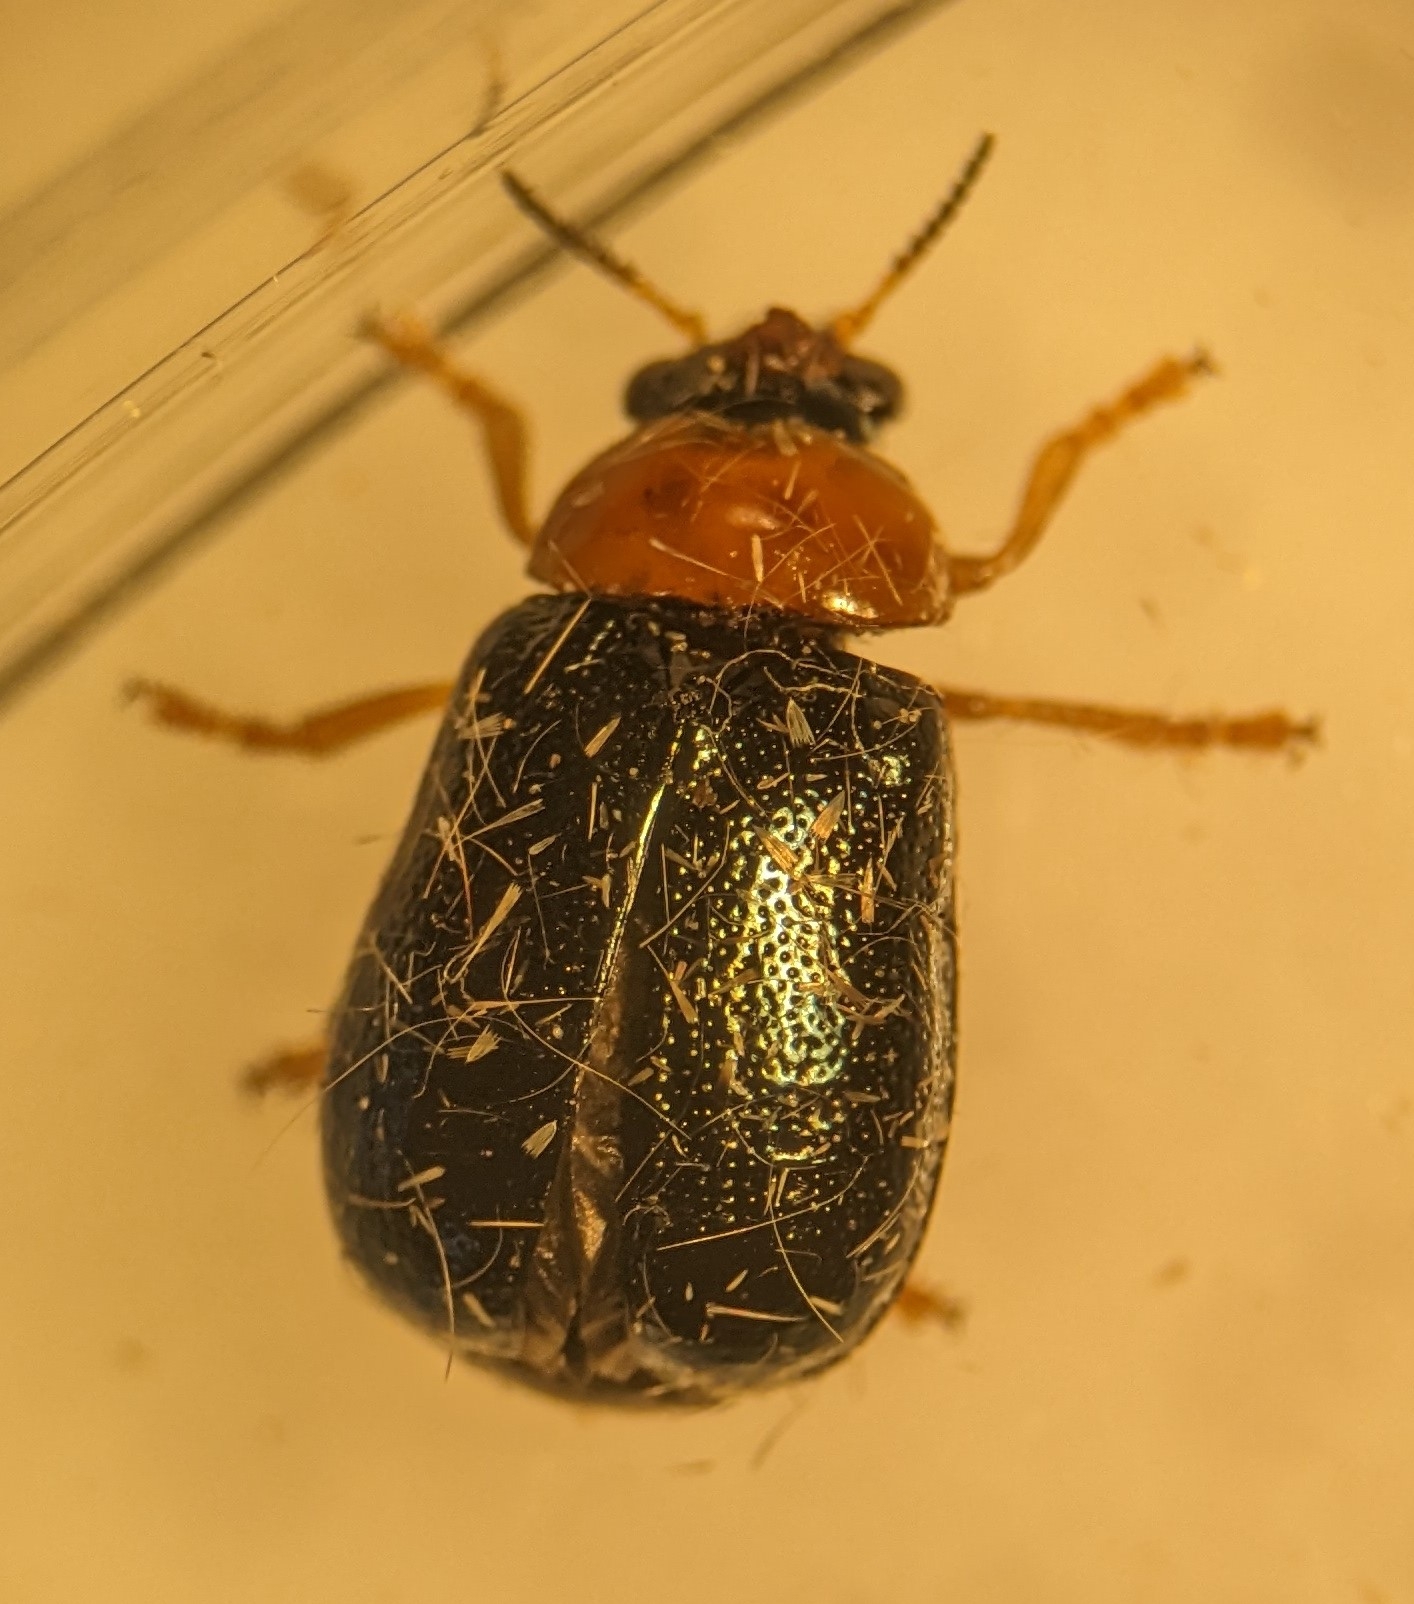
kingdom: Animalia
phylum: Arthropoda
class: Insecta
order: Coleoptera
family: Chrysomelidae
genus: Smaragdina
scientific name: Smaragdina salicina
